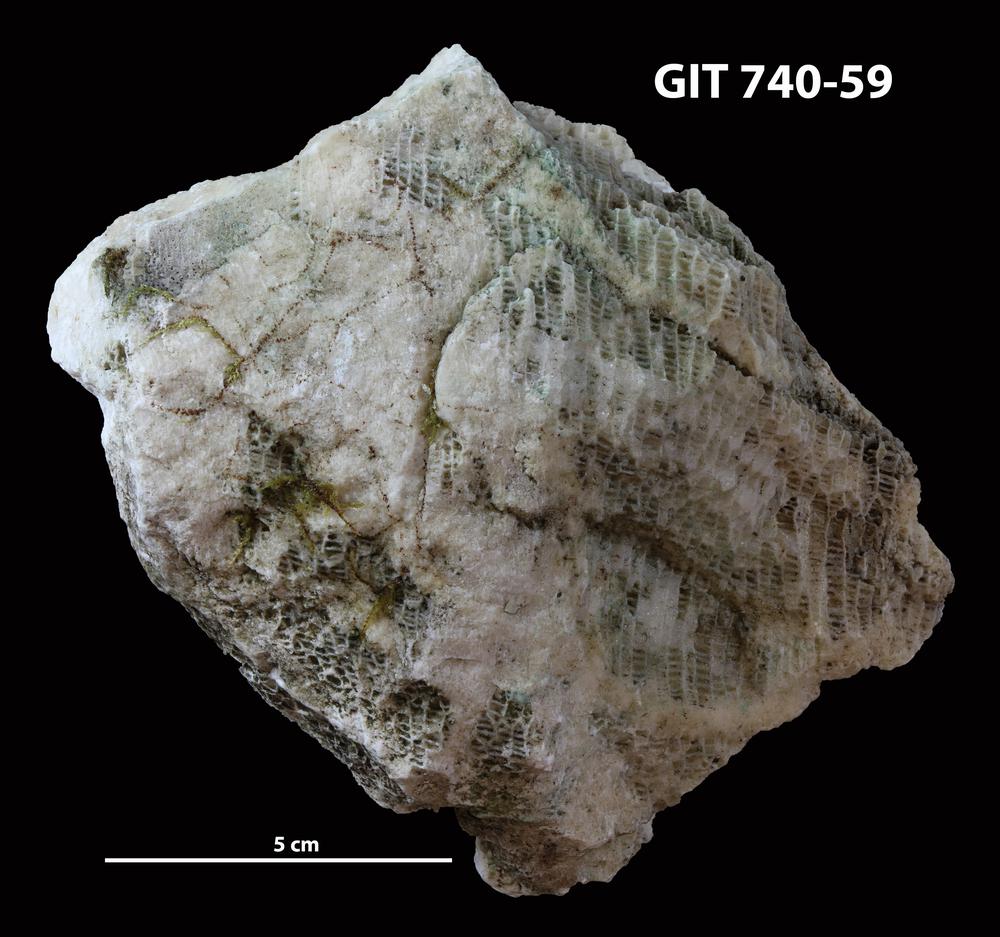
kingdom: Animalia
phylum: Cnidaria
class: Anthozoa
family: Favositidae
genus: Paleofavosites
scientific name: Paleofavosites
